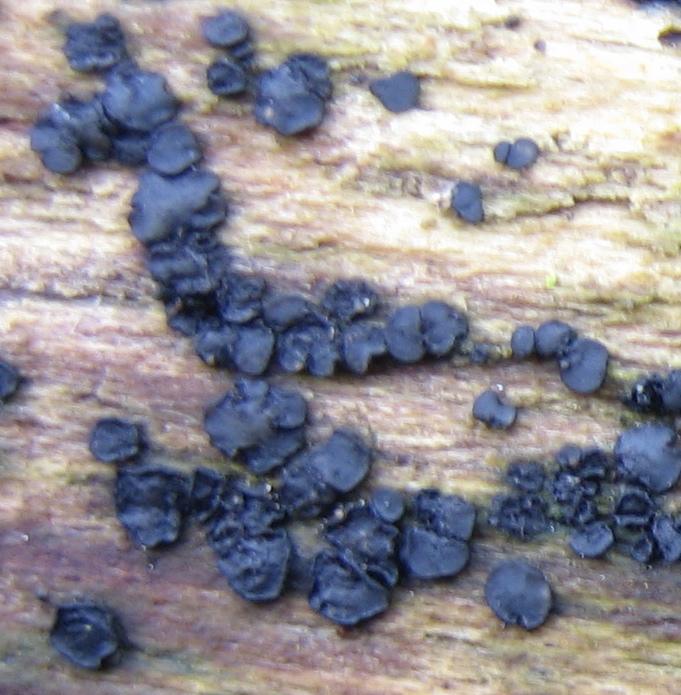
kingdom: Fungi
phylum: Ascomycota
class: Leotiomycetes
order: Helotiales
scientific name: Helotiales
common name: stilkskiveordenen
